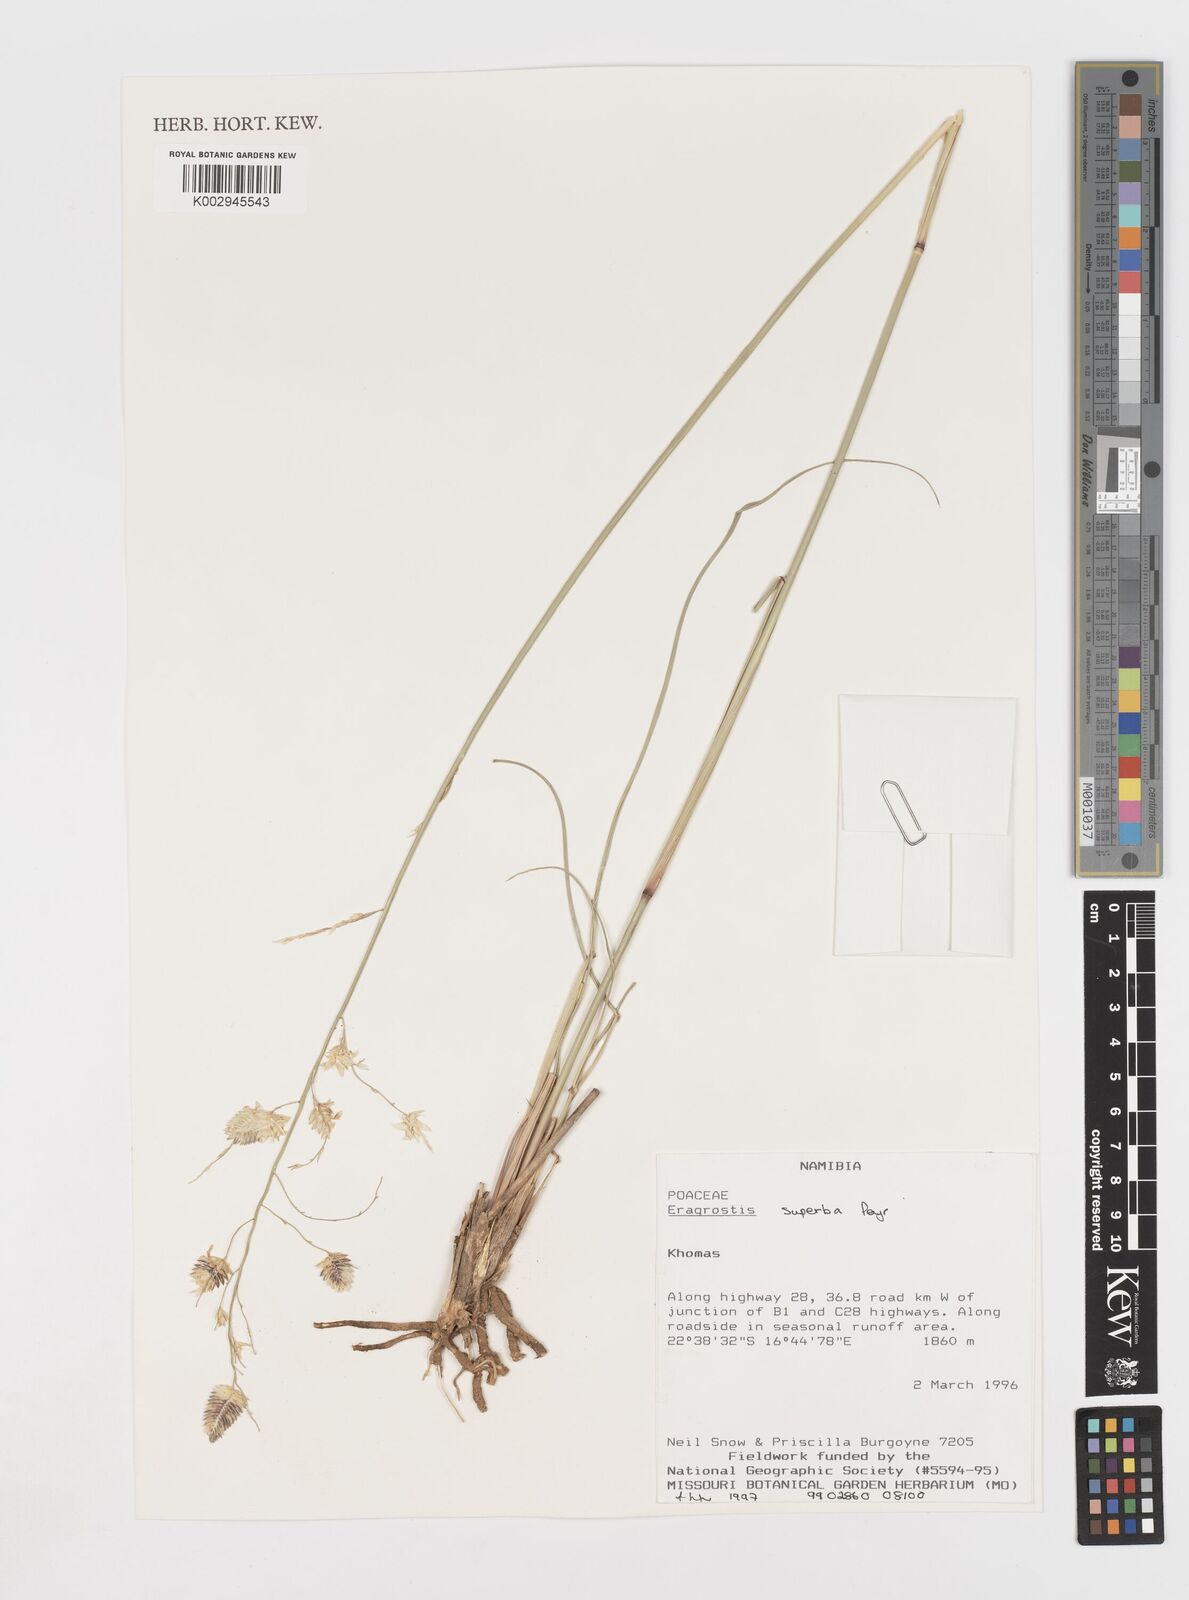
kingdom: Plantae
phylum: Tracheophyta
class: Liliopsida
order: Poales
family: Poaceae
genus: Eragrostis
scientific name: Eragrostis superba
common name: Wilman lovegrass
